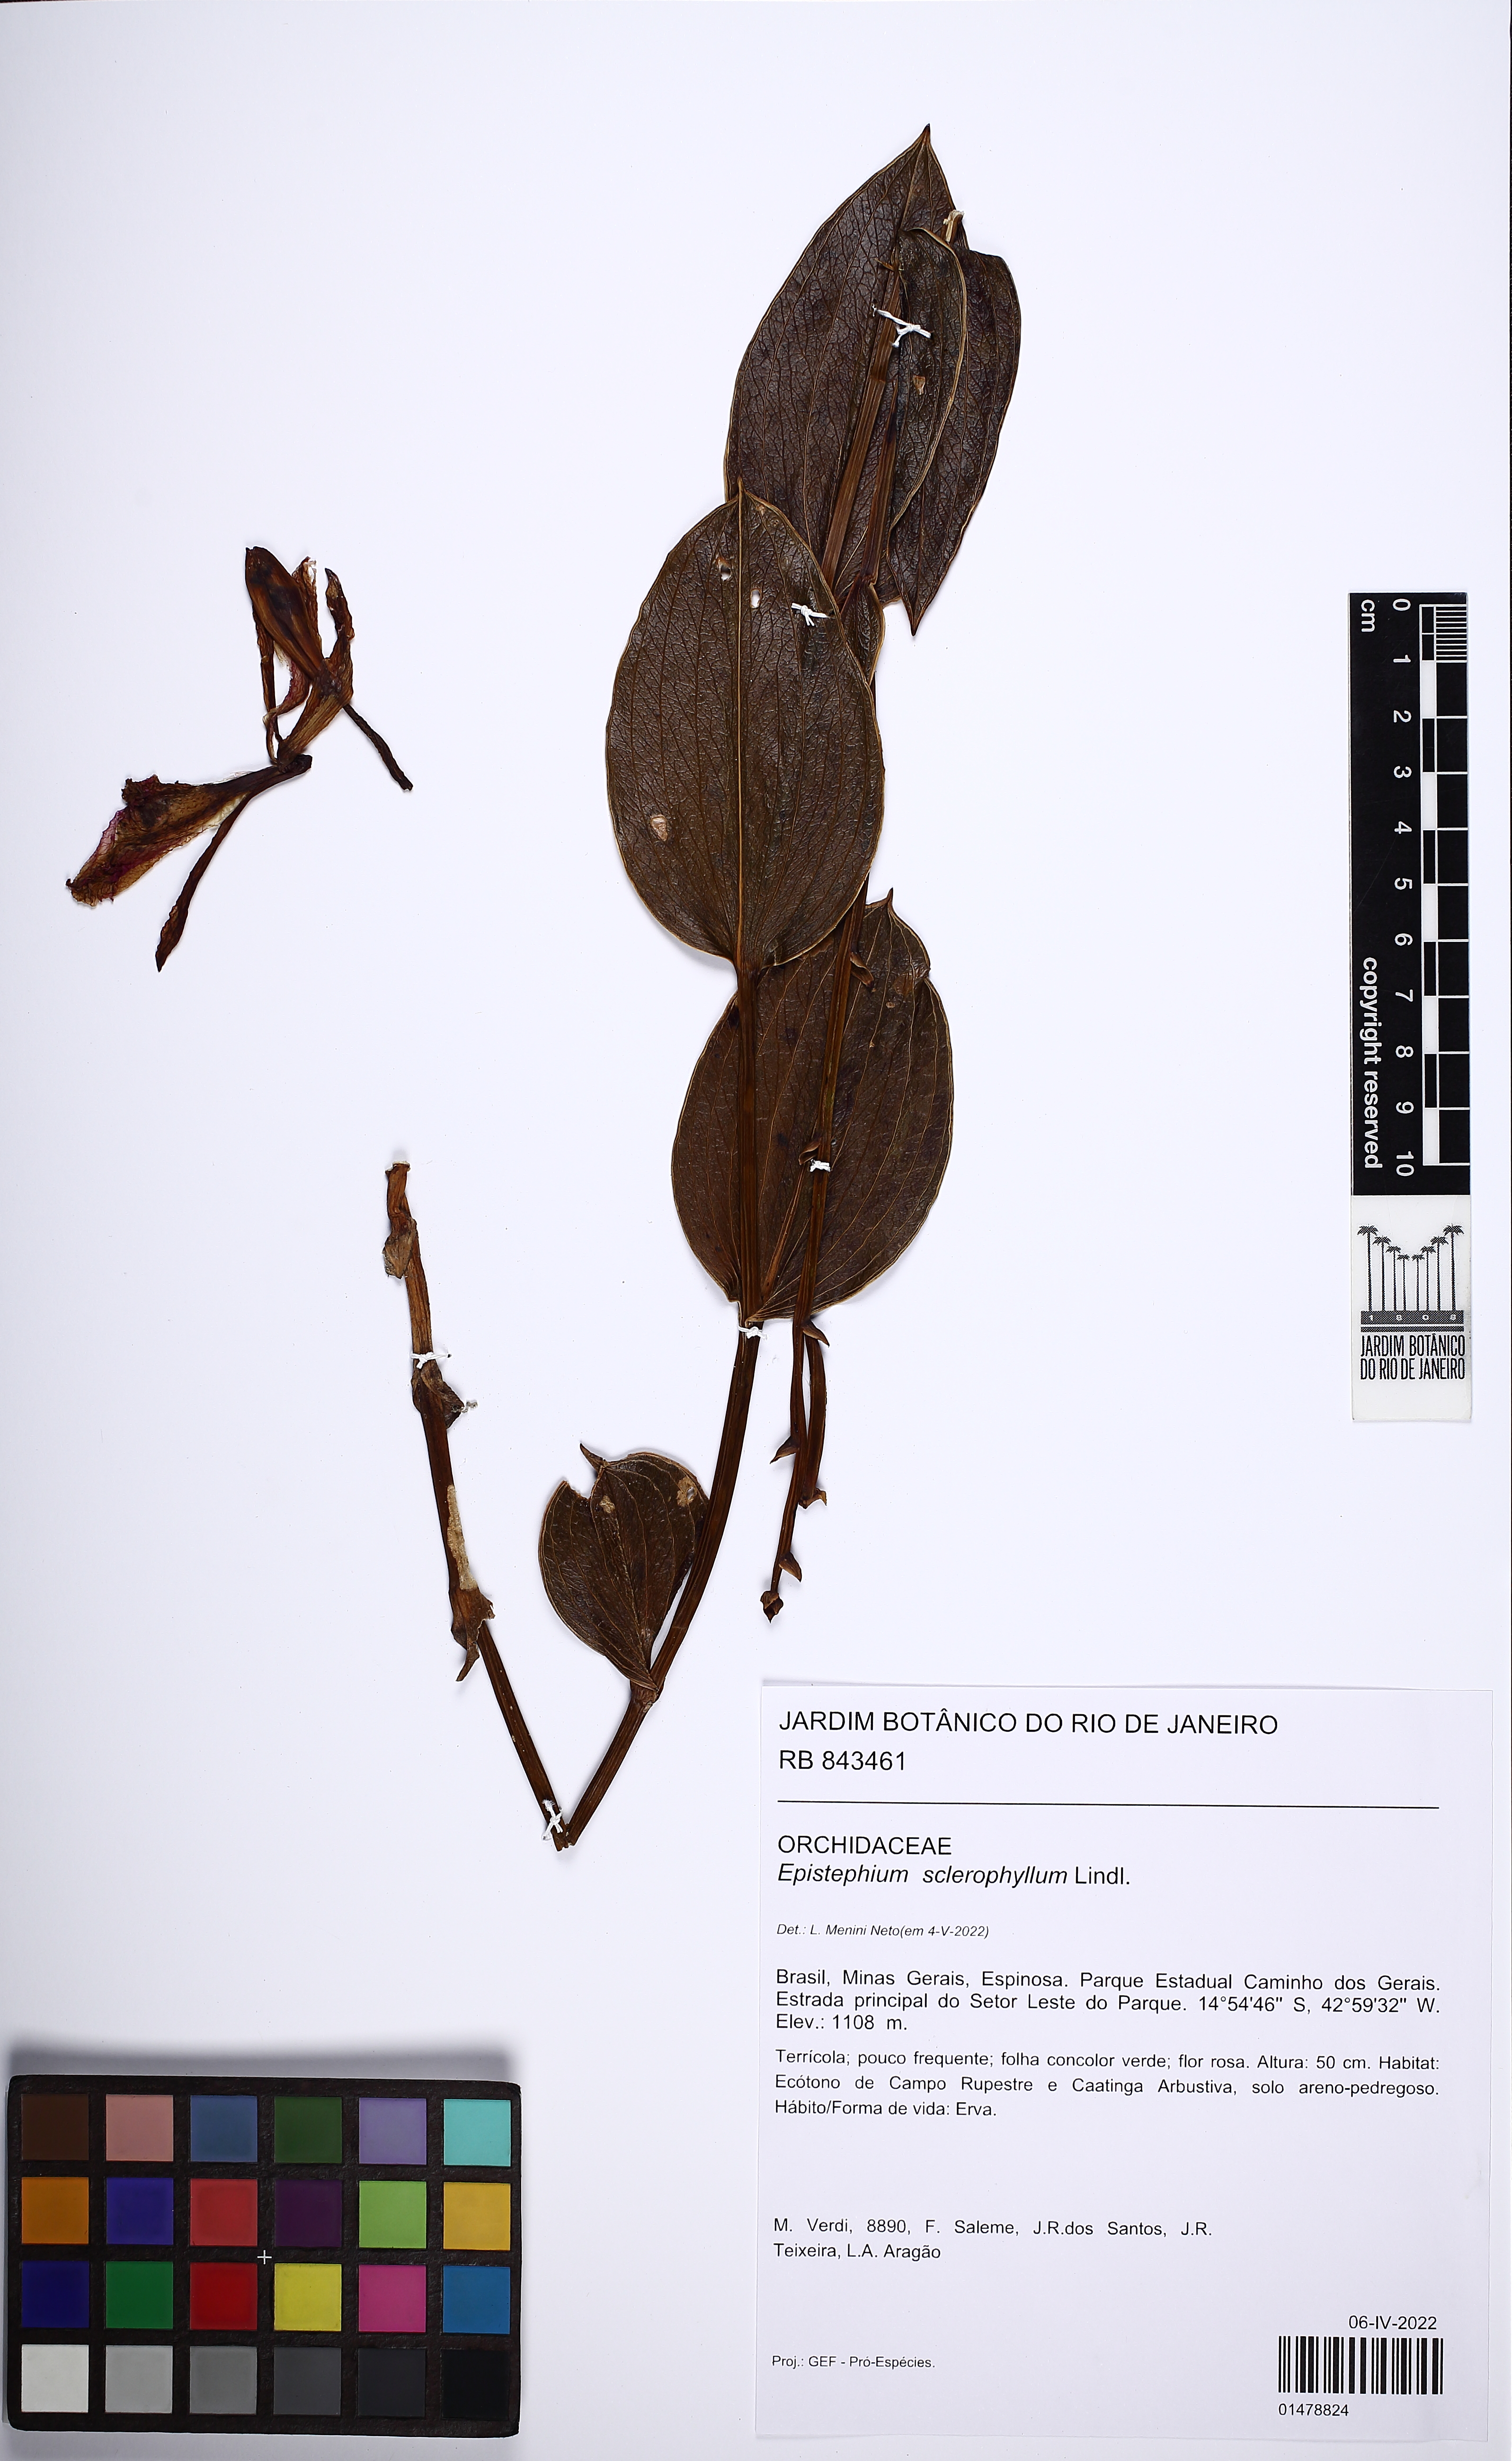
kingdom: Plantae
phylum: Tracheophyta
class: Liliopsida
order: Asparagales
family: Orchidaceae
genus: Epistephium
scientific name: Epistephium sclerophyllum
